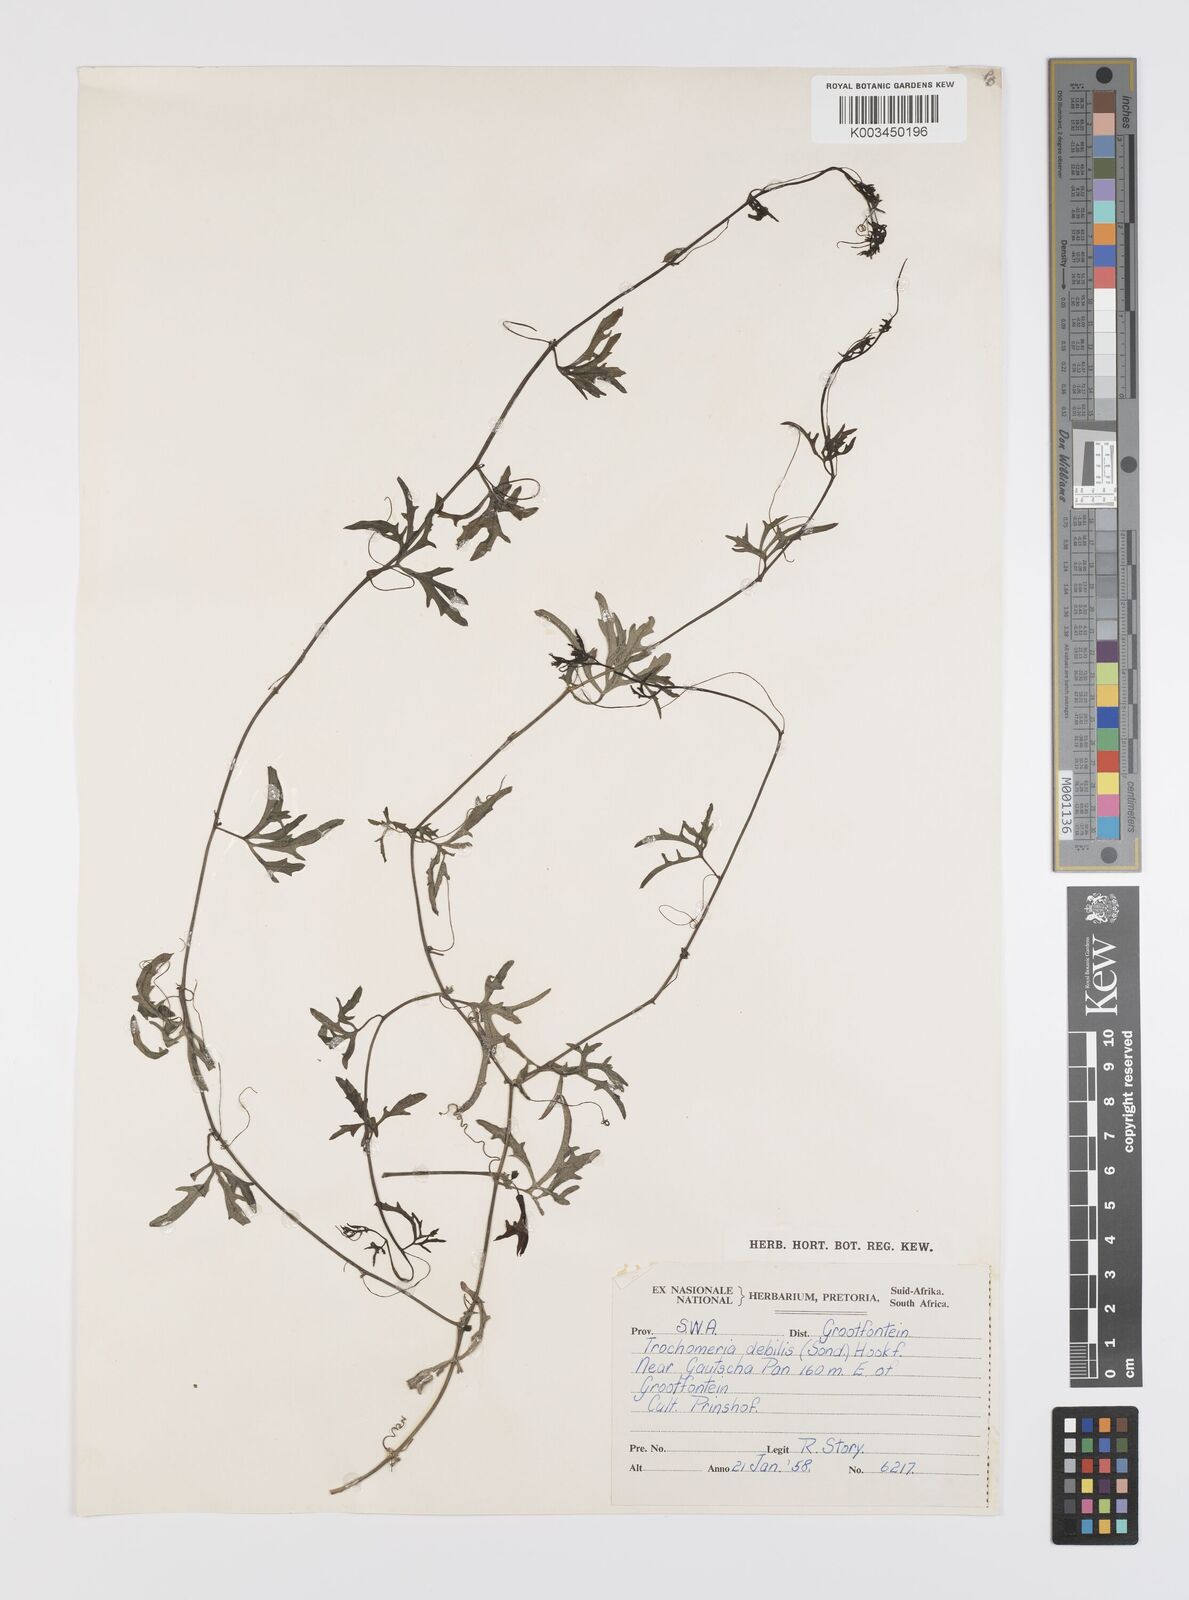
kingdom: Plantae
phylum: Tracheophyta
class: Magnoliopsida
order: Cucurbitales
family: Cucurbitaceae
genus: Trochomeria
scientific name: Trochomeria debilis
